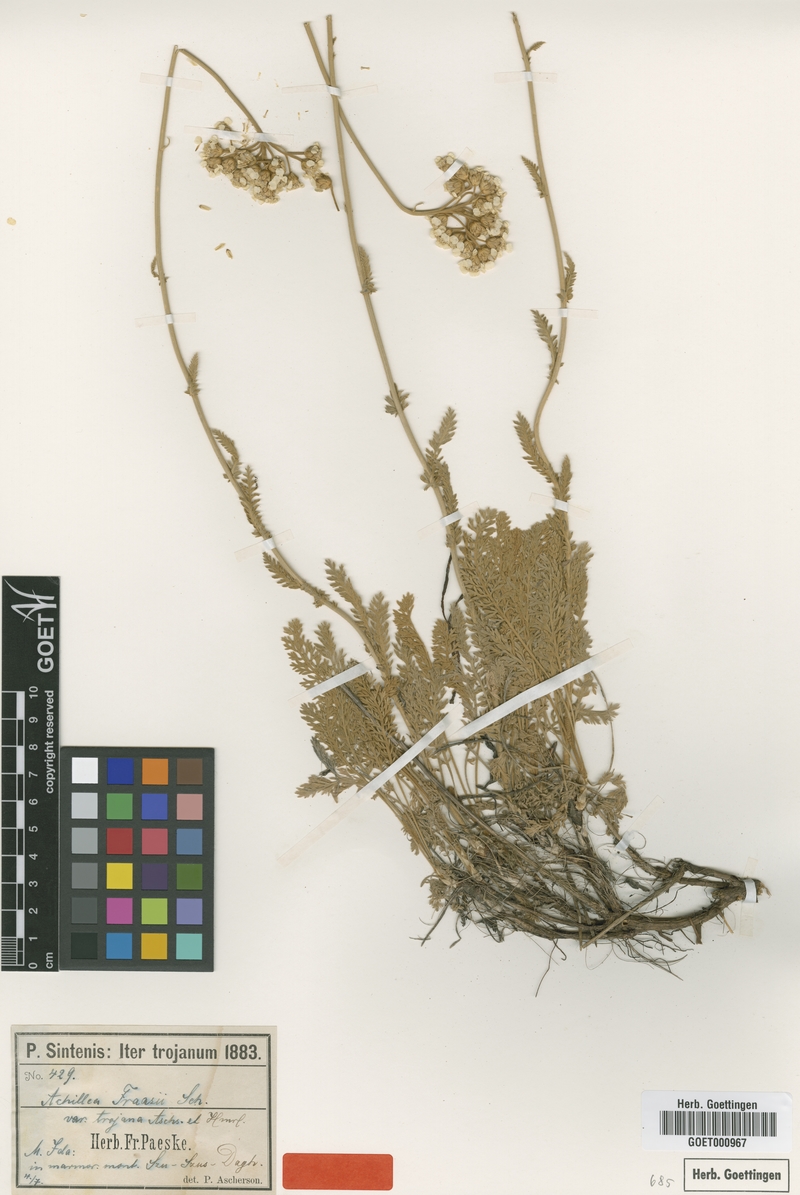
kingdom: Plantae
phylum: Tracheophyta
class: Magnoliopsida
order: Asterales
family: Asteraceae
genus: Achillea
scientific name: Achillea fraasii
